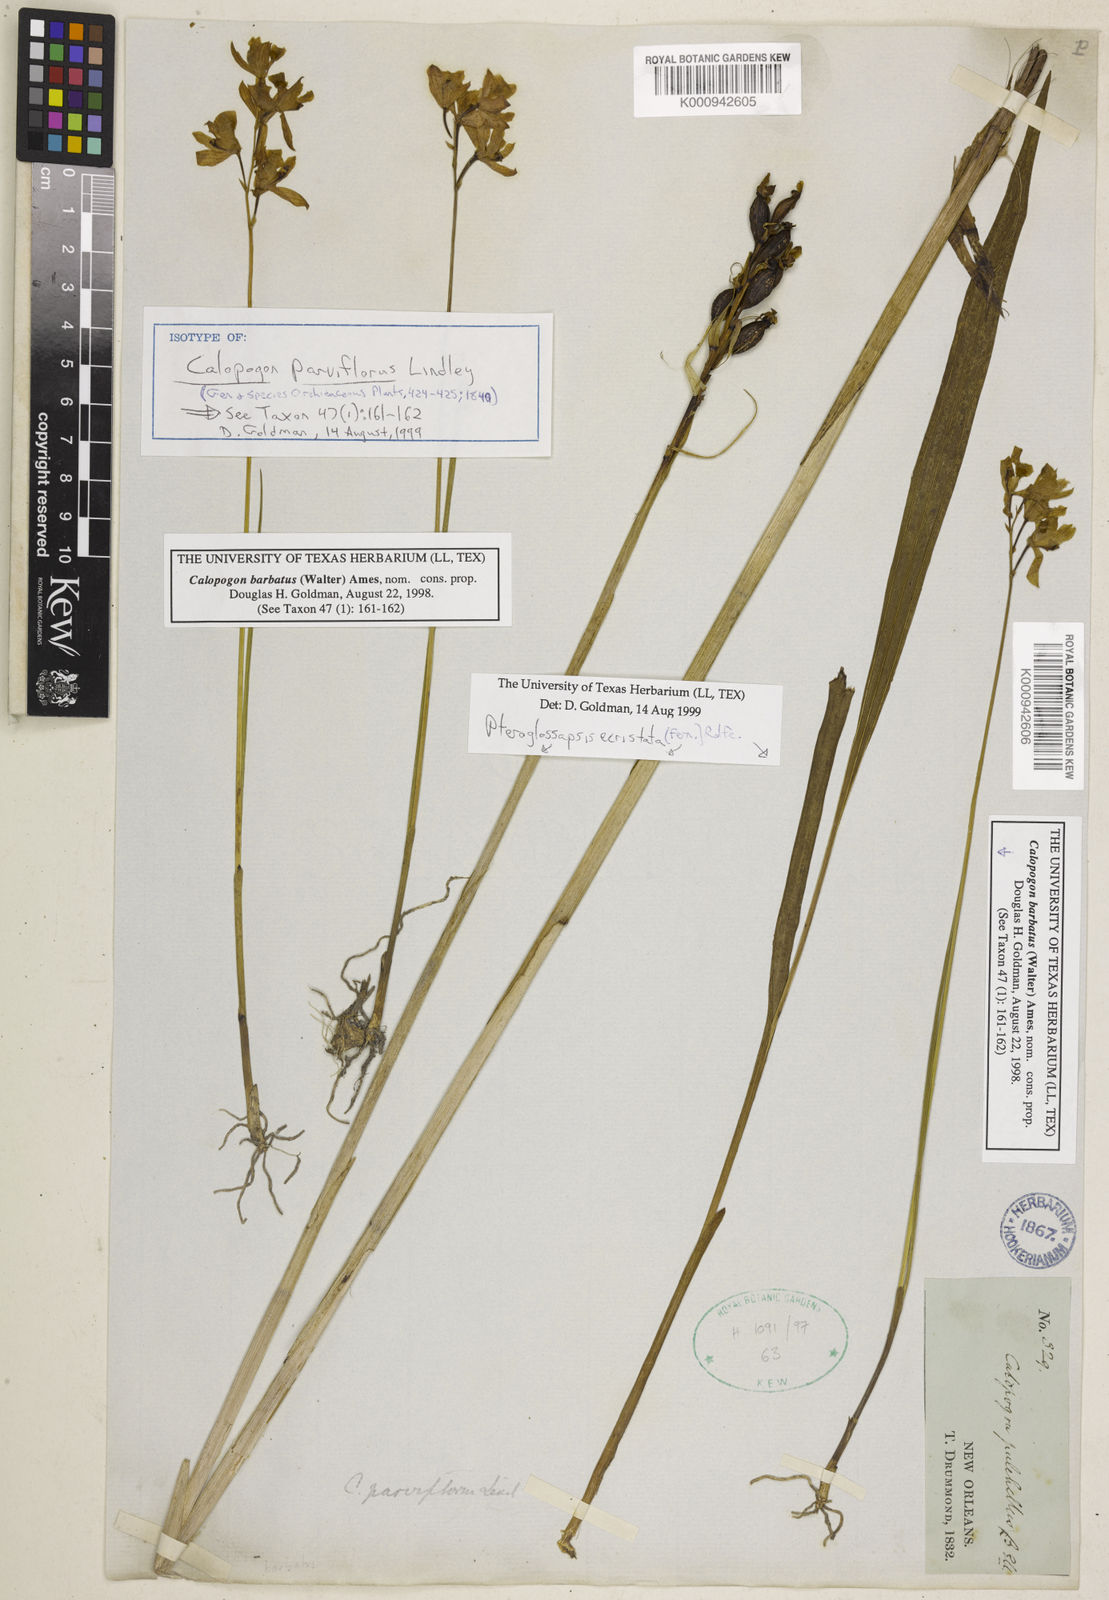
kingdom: Plantae
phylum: Tracheophyta
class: Liliopsida
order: Asparagales
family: Orchidaceae
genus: Calopogon
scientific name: Calopogon barbatus
